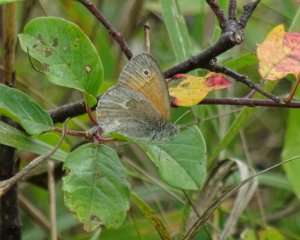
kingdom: Animalia
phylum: Arthropoda
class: Insecta
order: Lepidoptera
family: Nymphalidae
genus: Coenonympha
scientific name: Coenonympha tullia
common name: Large Heath
